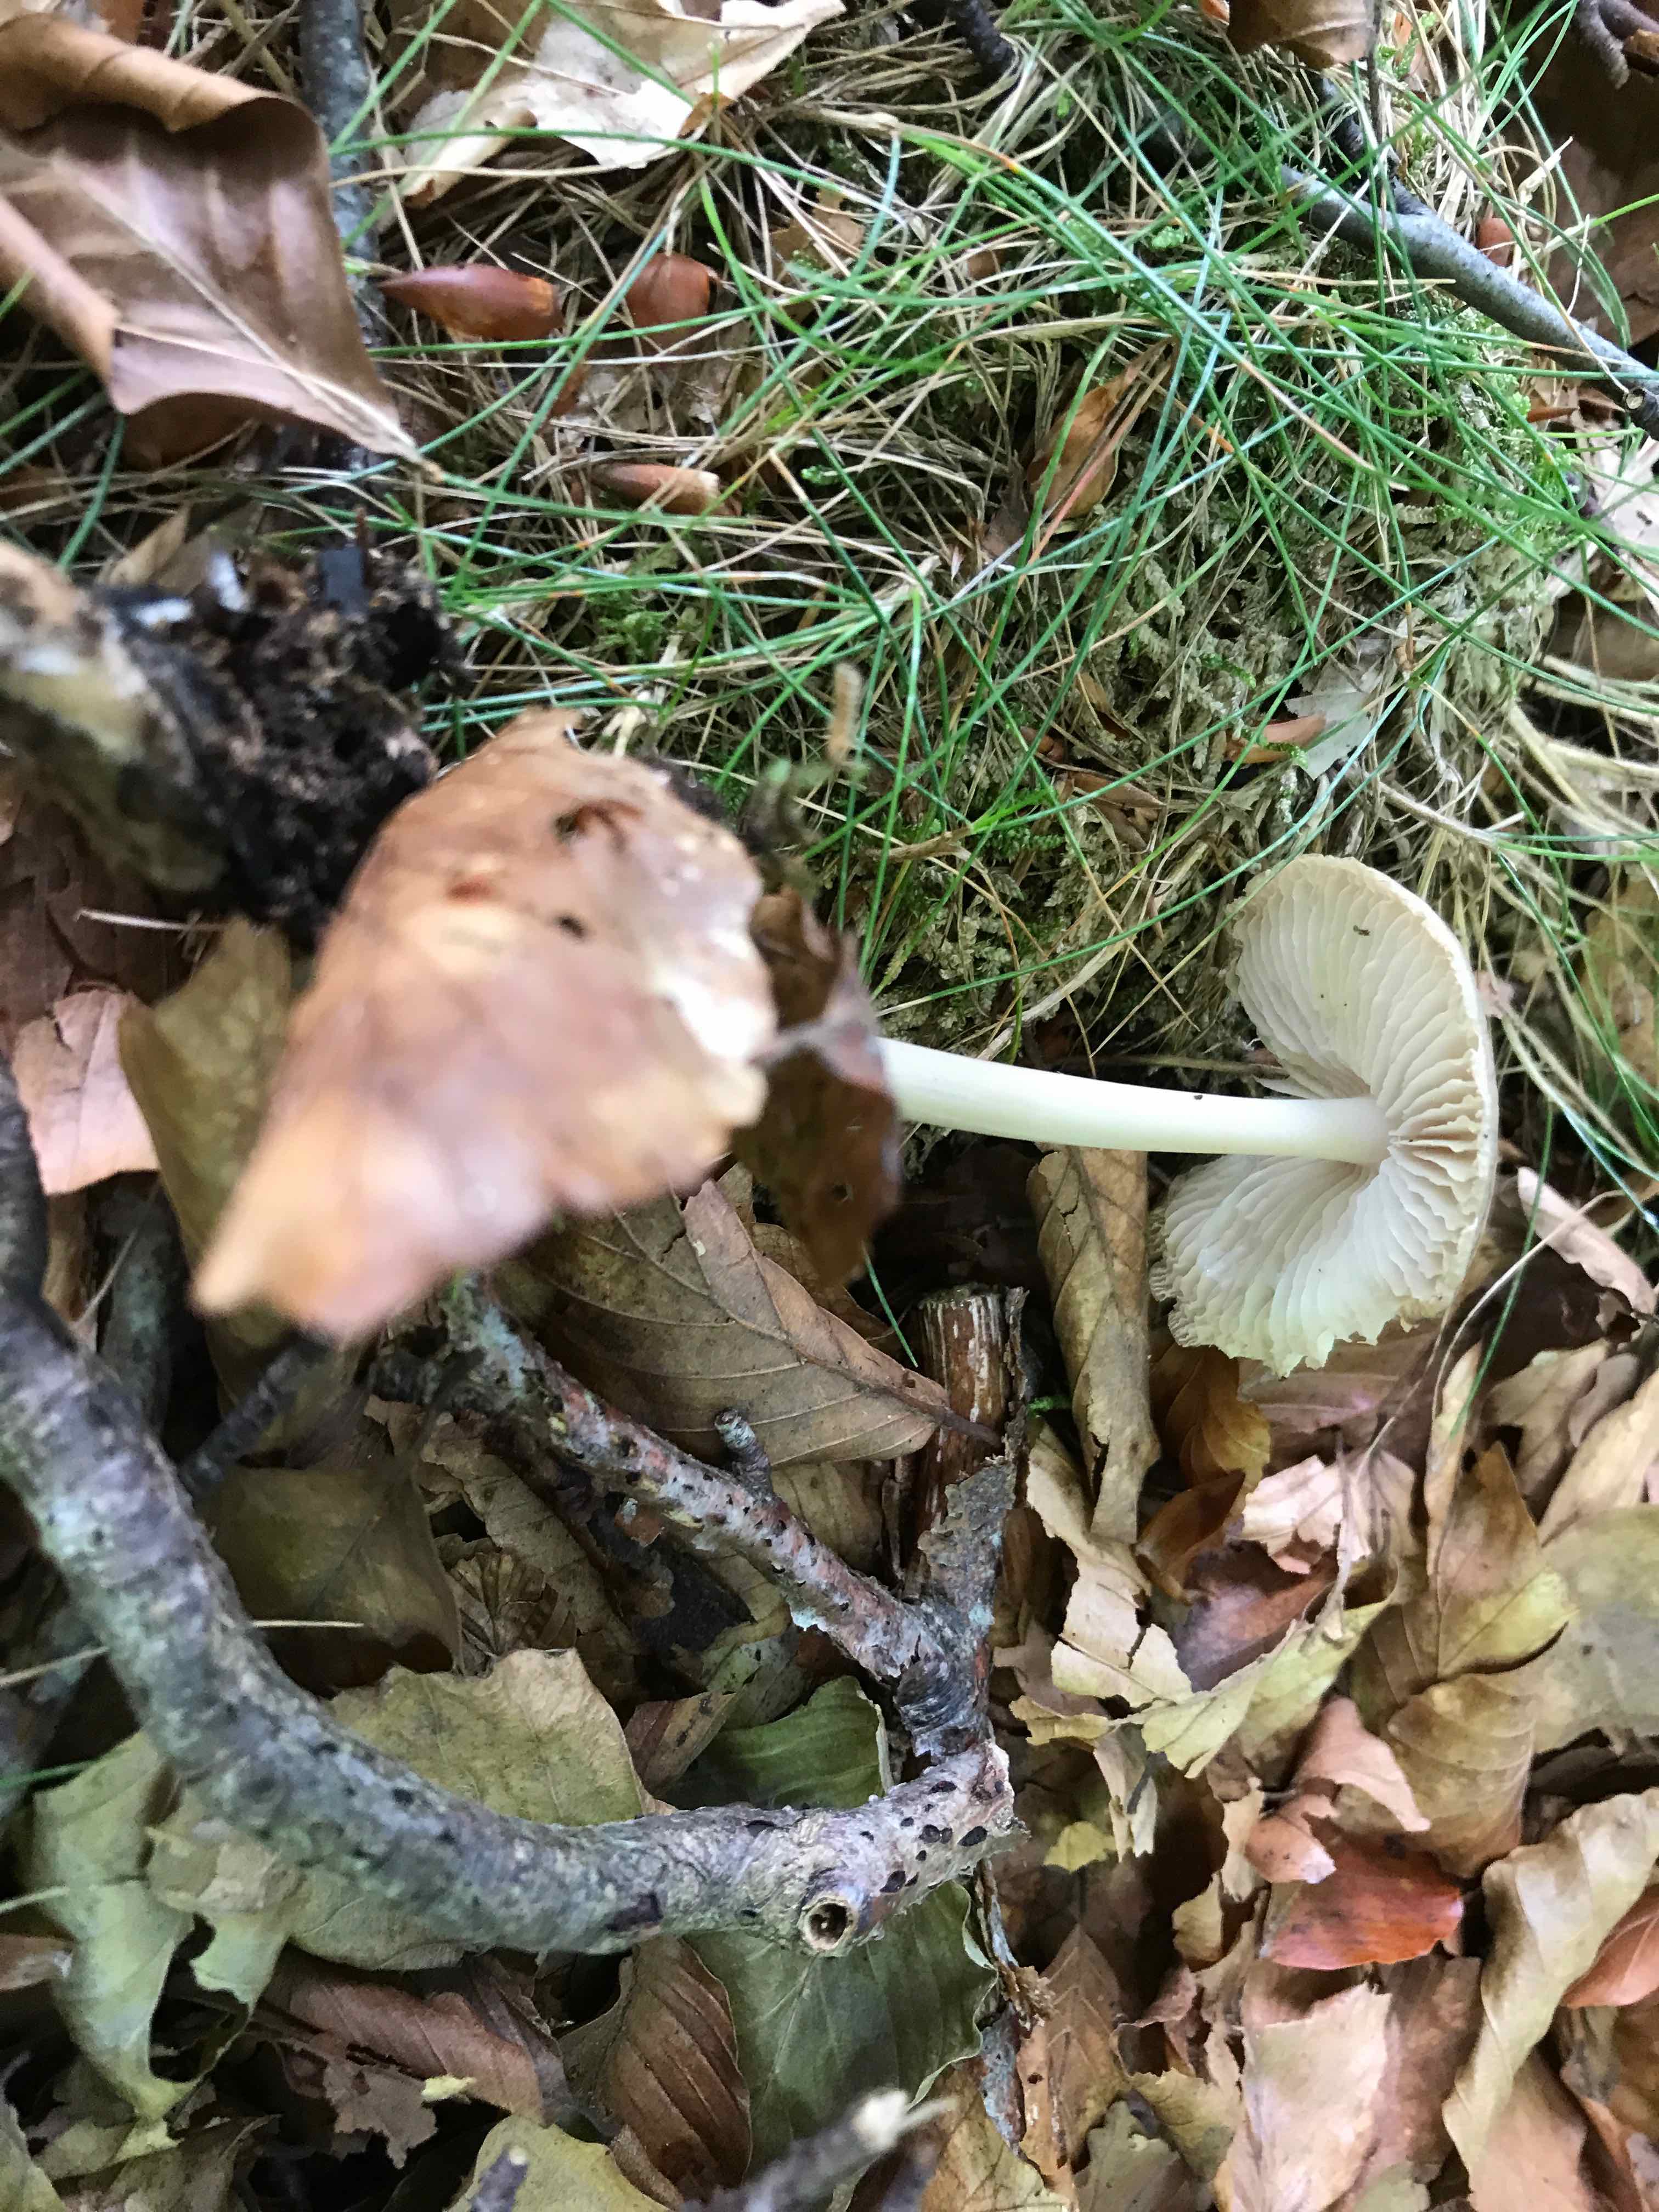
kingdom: Fungi
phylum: Basidiomycota
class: Agaricomycetes
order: Agaricales
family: Physalacriaceae
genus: Hymenopellis
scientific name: Hymenopellis radicata
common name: almindelig pælerodshat
